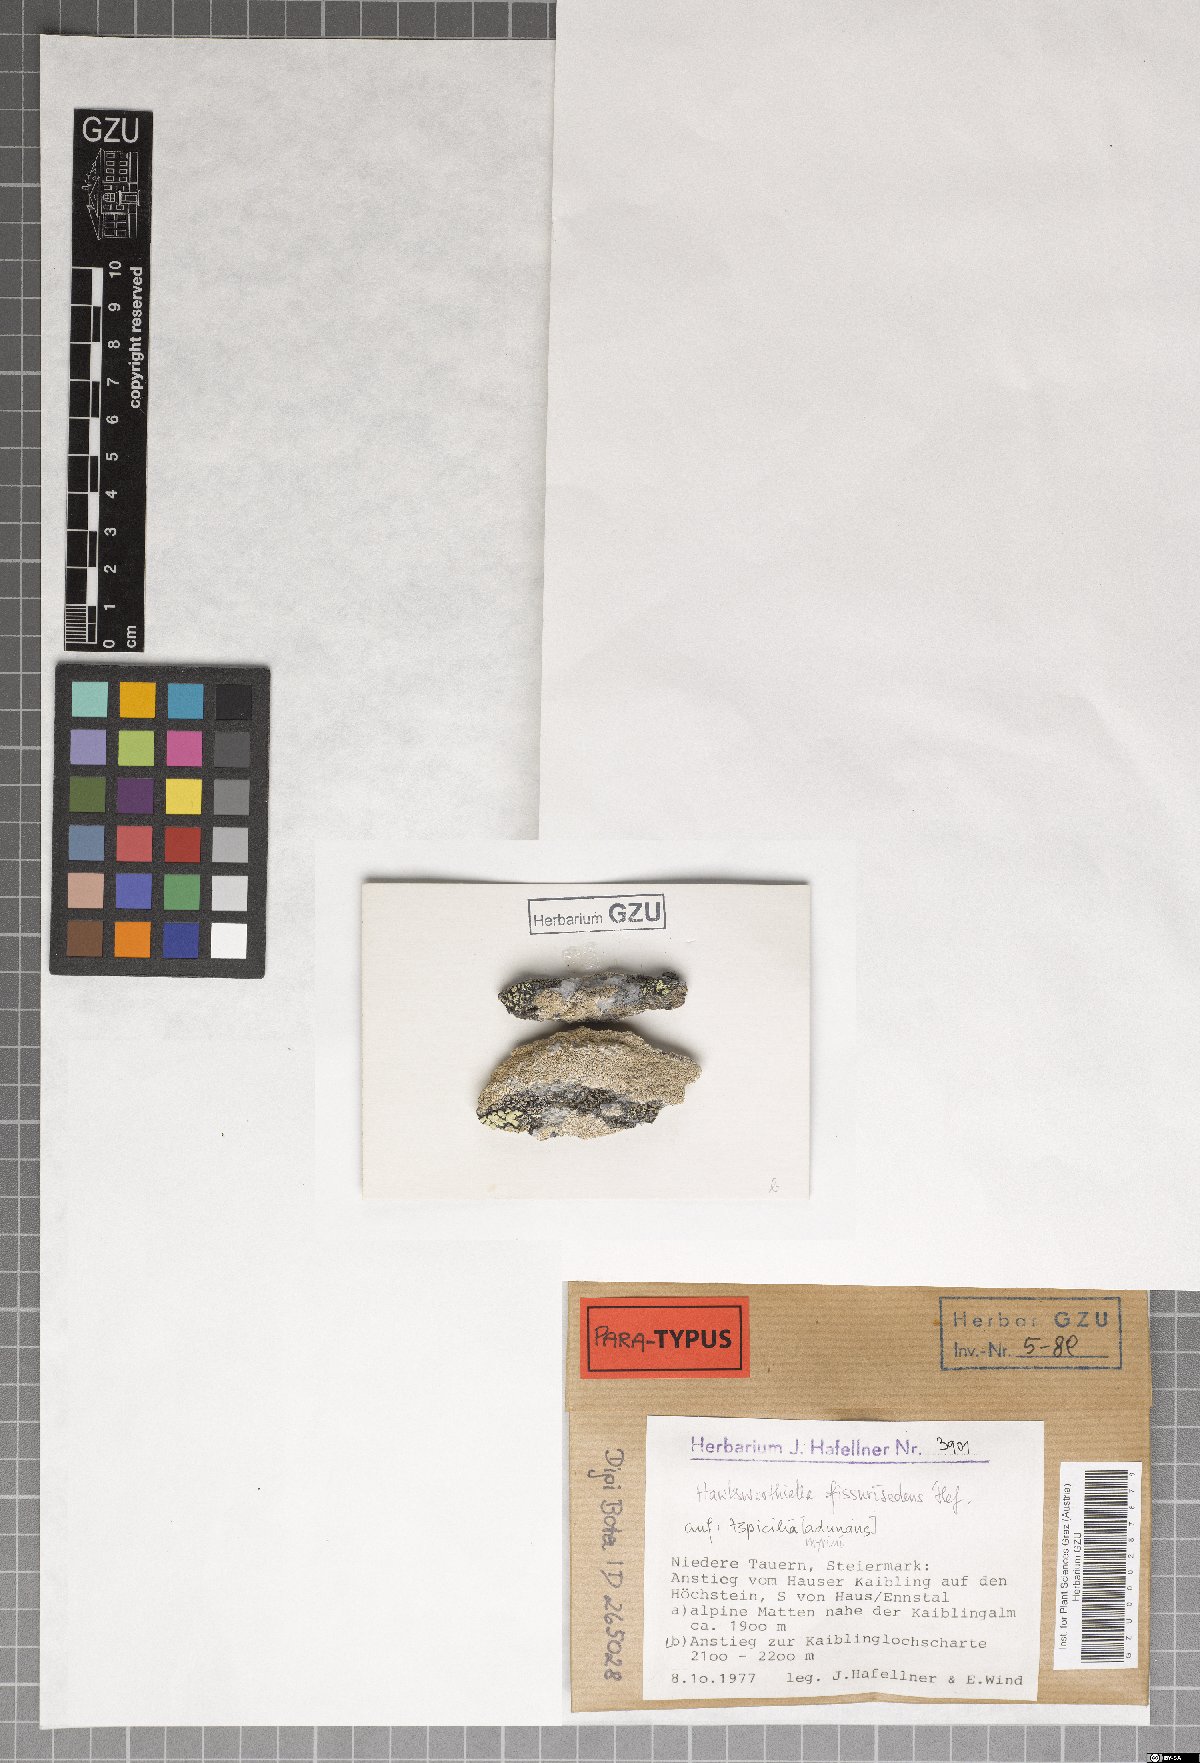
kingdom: Fungi
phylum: Ascomycota
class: Eurotiomycetes
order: Verrucariales
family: Adelococcaceae
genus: Sagediopsis
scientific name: Sagediopsis fissurisedens
